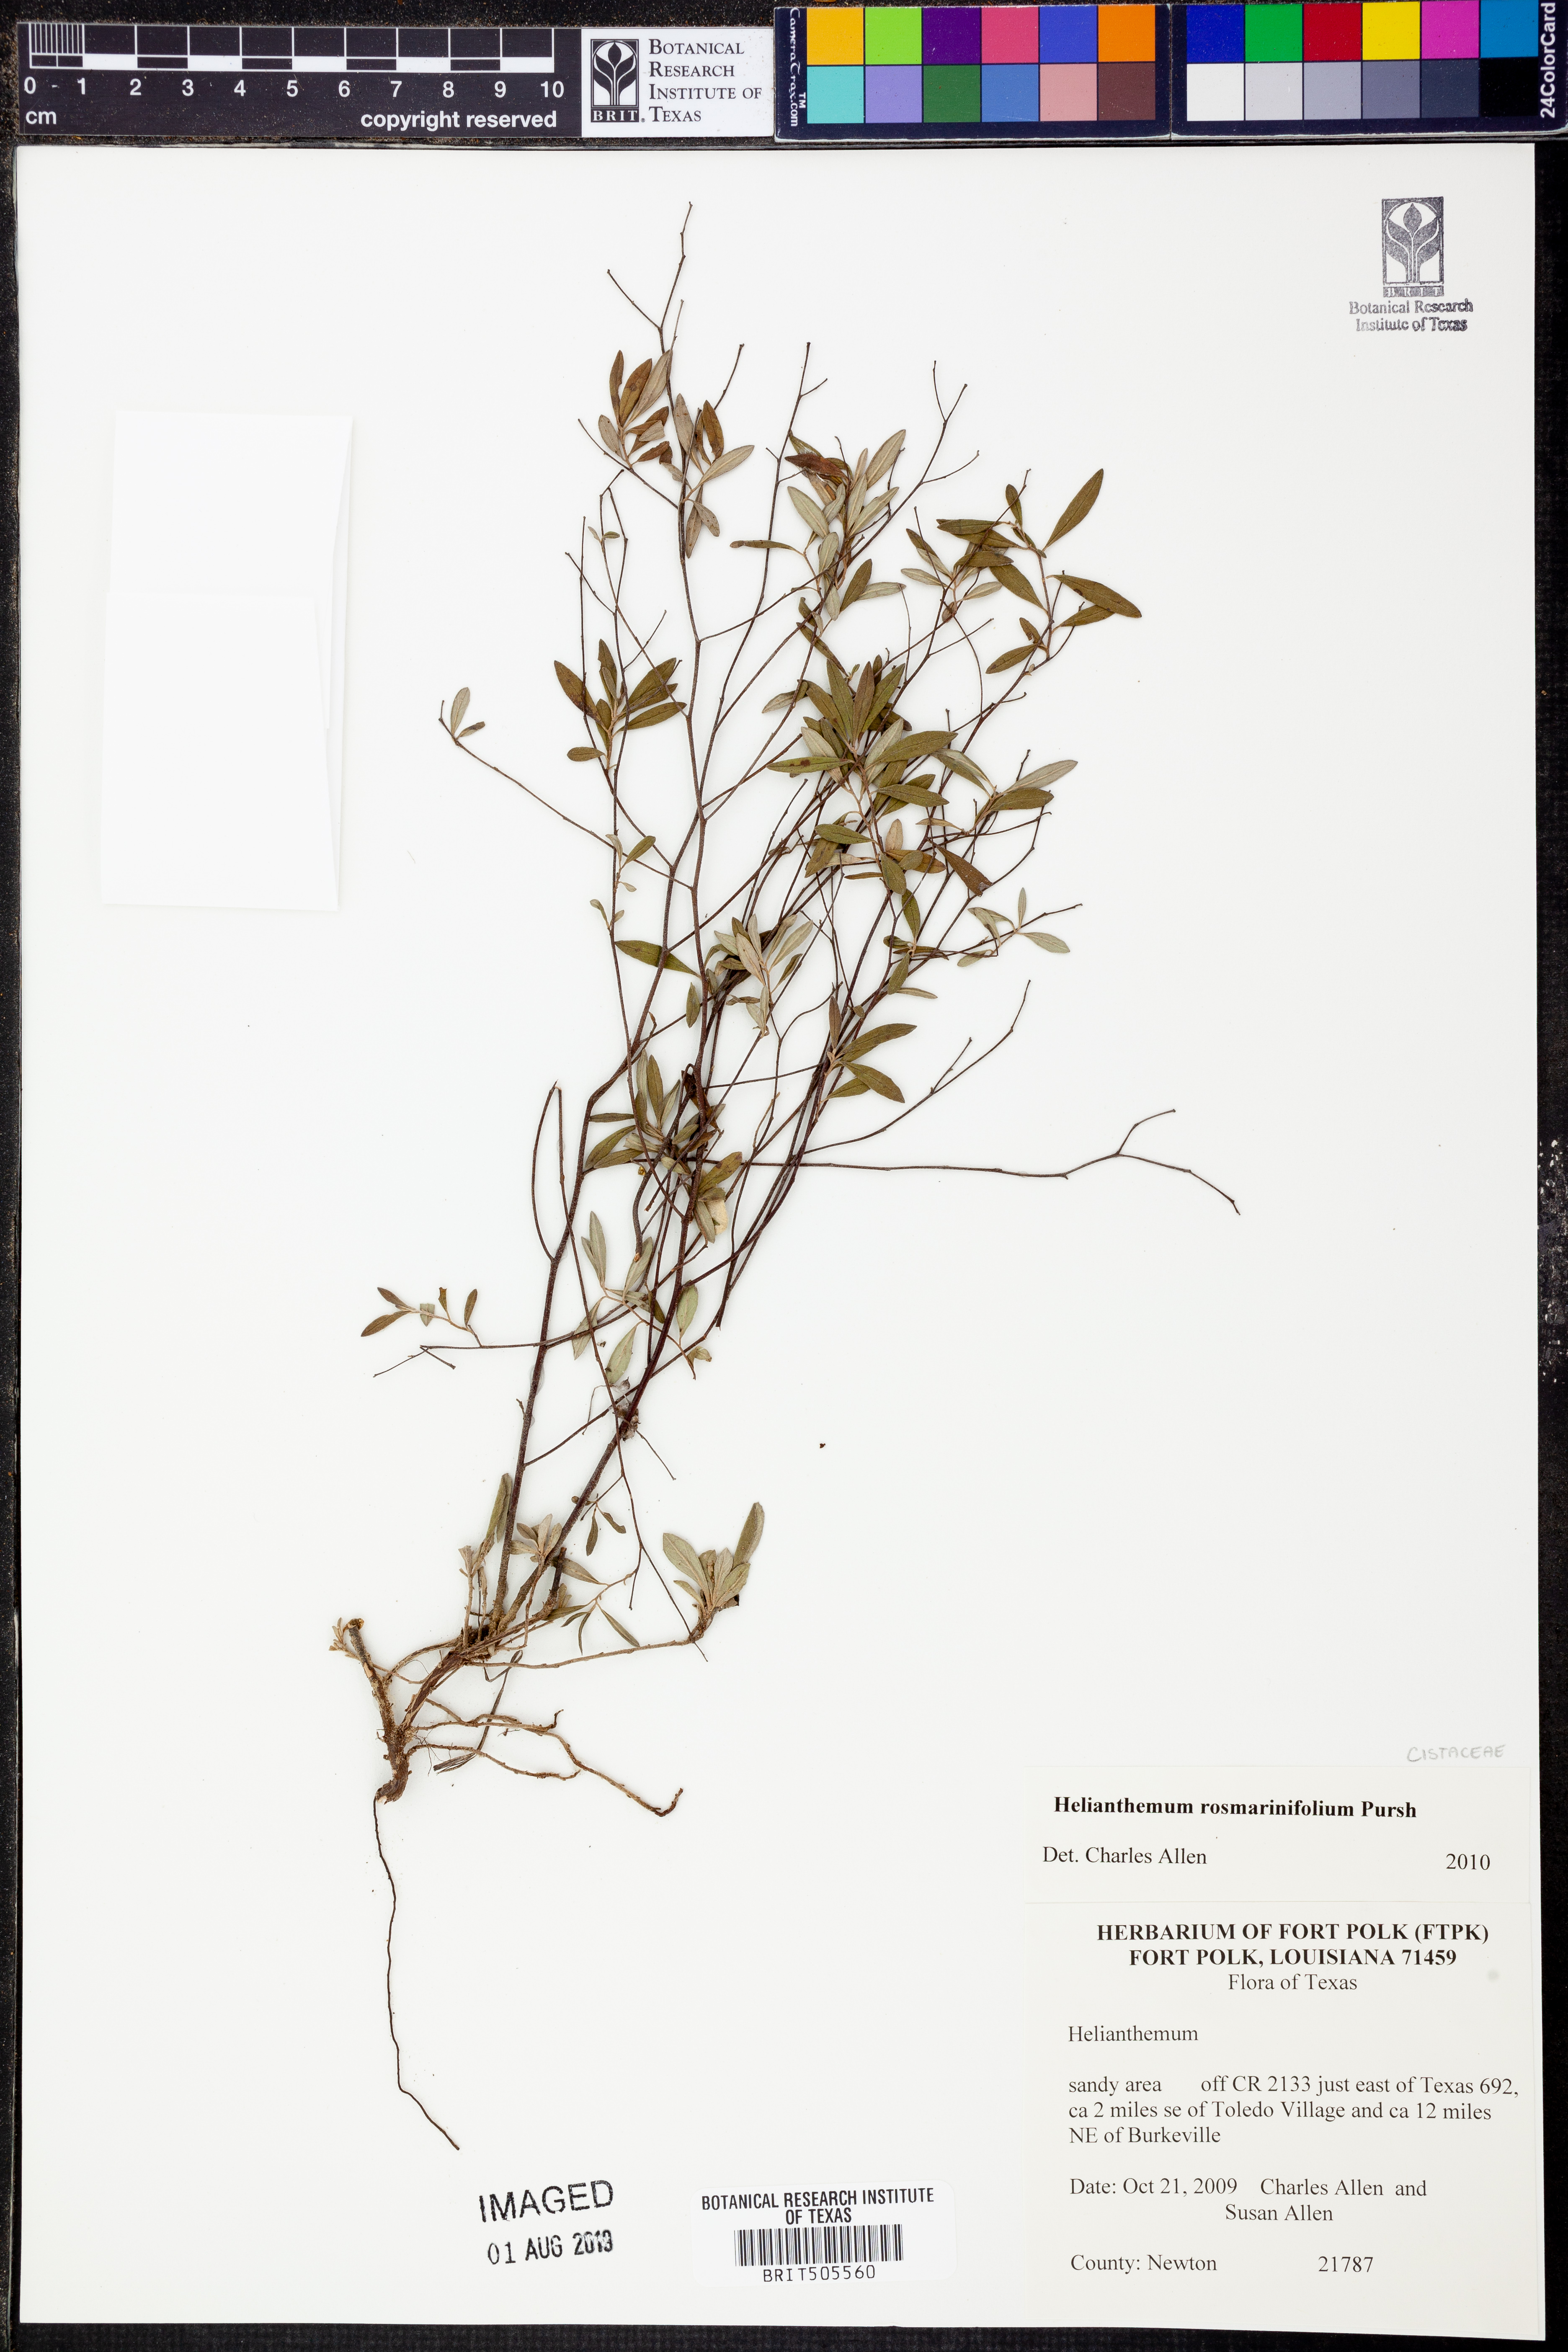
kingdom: Plantae
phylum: Tracheophyta
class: Magnoliopsida
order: Malvales
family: Cistaceae
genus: Crocanthemum
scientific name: Crocanthemum rosmarinifolium
